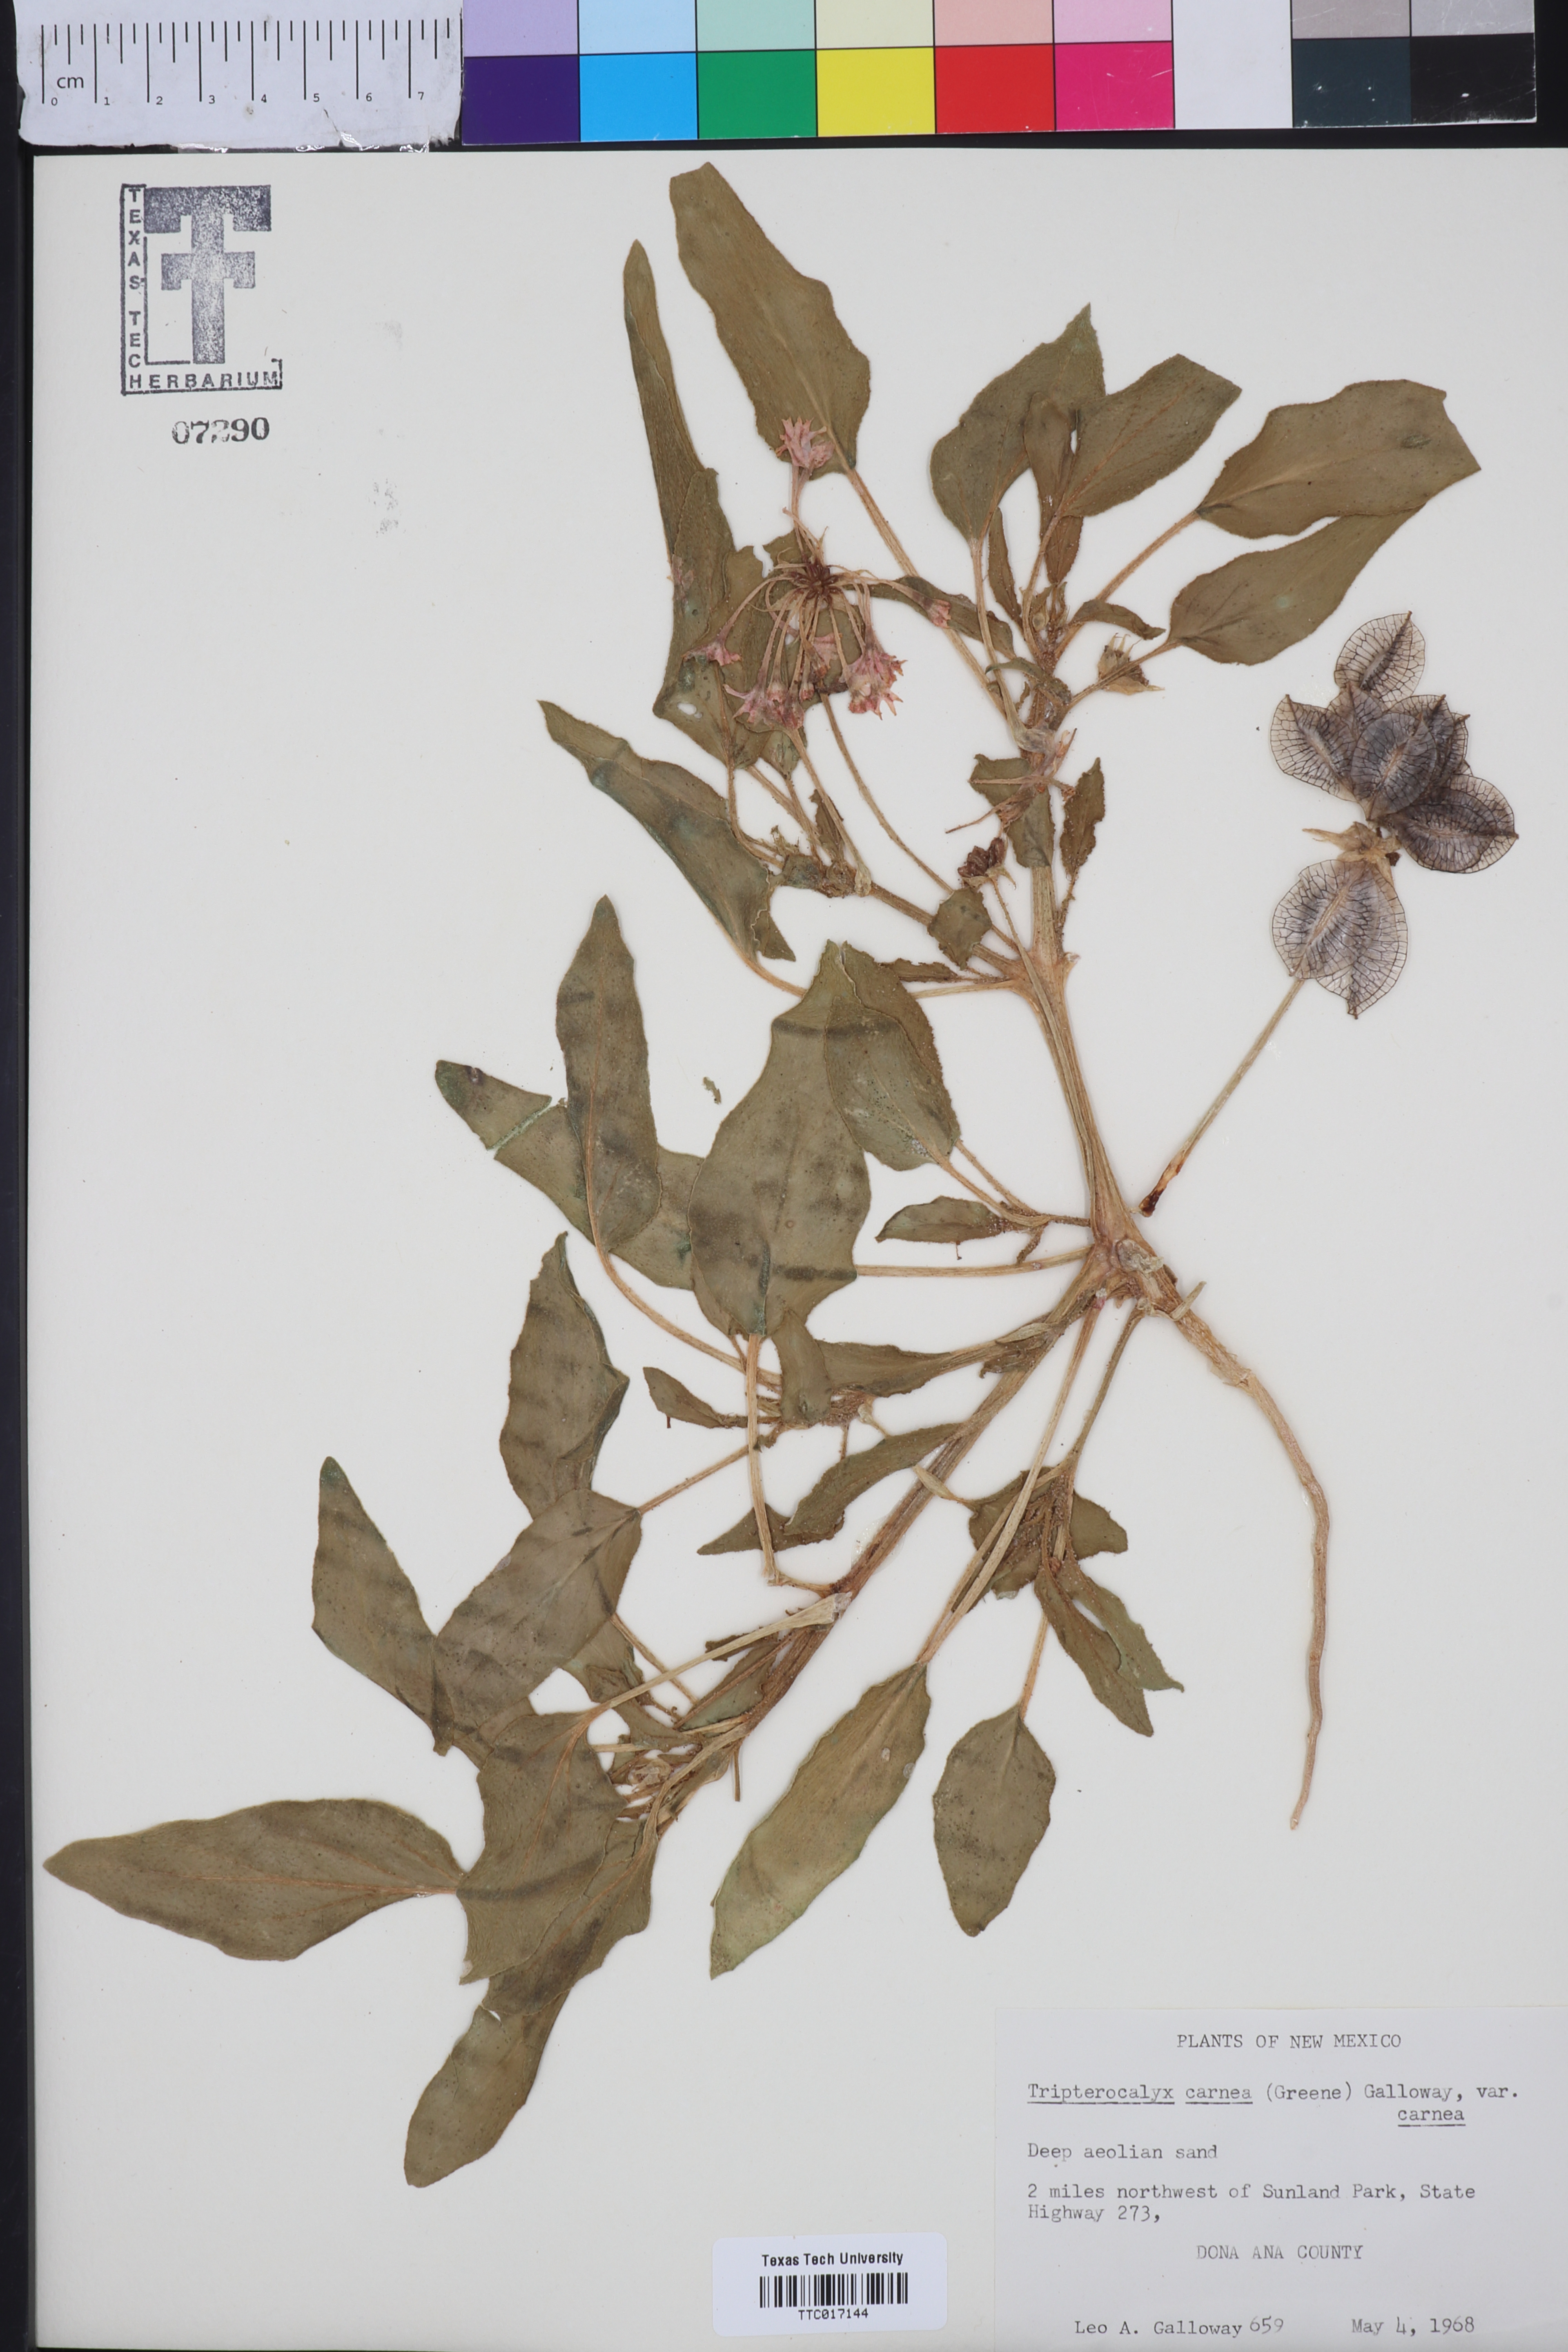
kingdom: Plantae
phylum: Tracheophyta
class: Magnoliopsida
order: Caryophyllales
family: Nyctaginaceae
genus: Tripterocalyx
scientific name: Tripterocalyx carneus
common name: Winged sandpuffs
